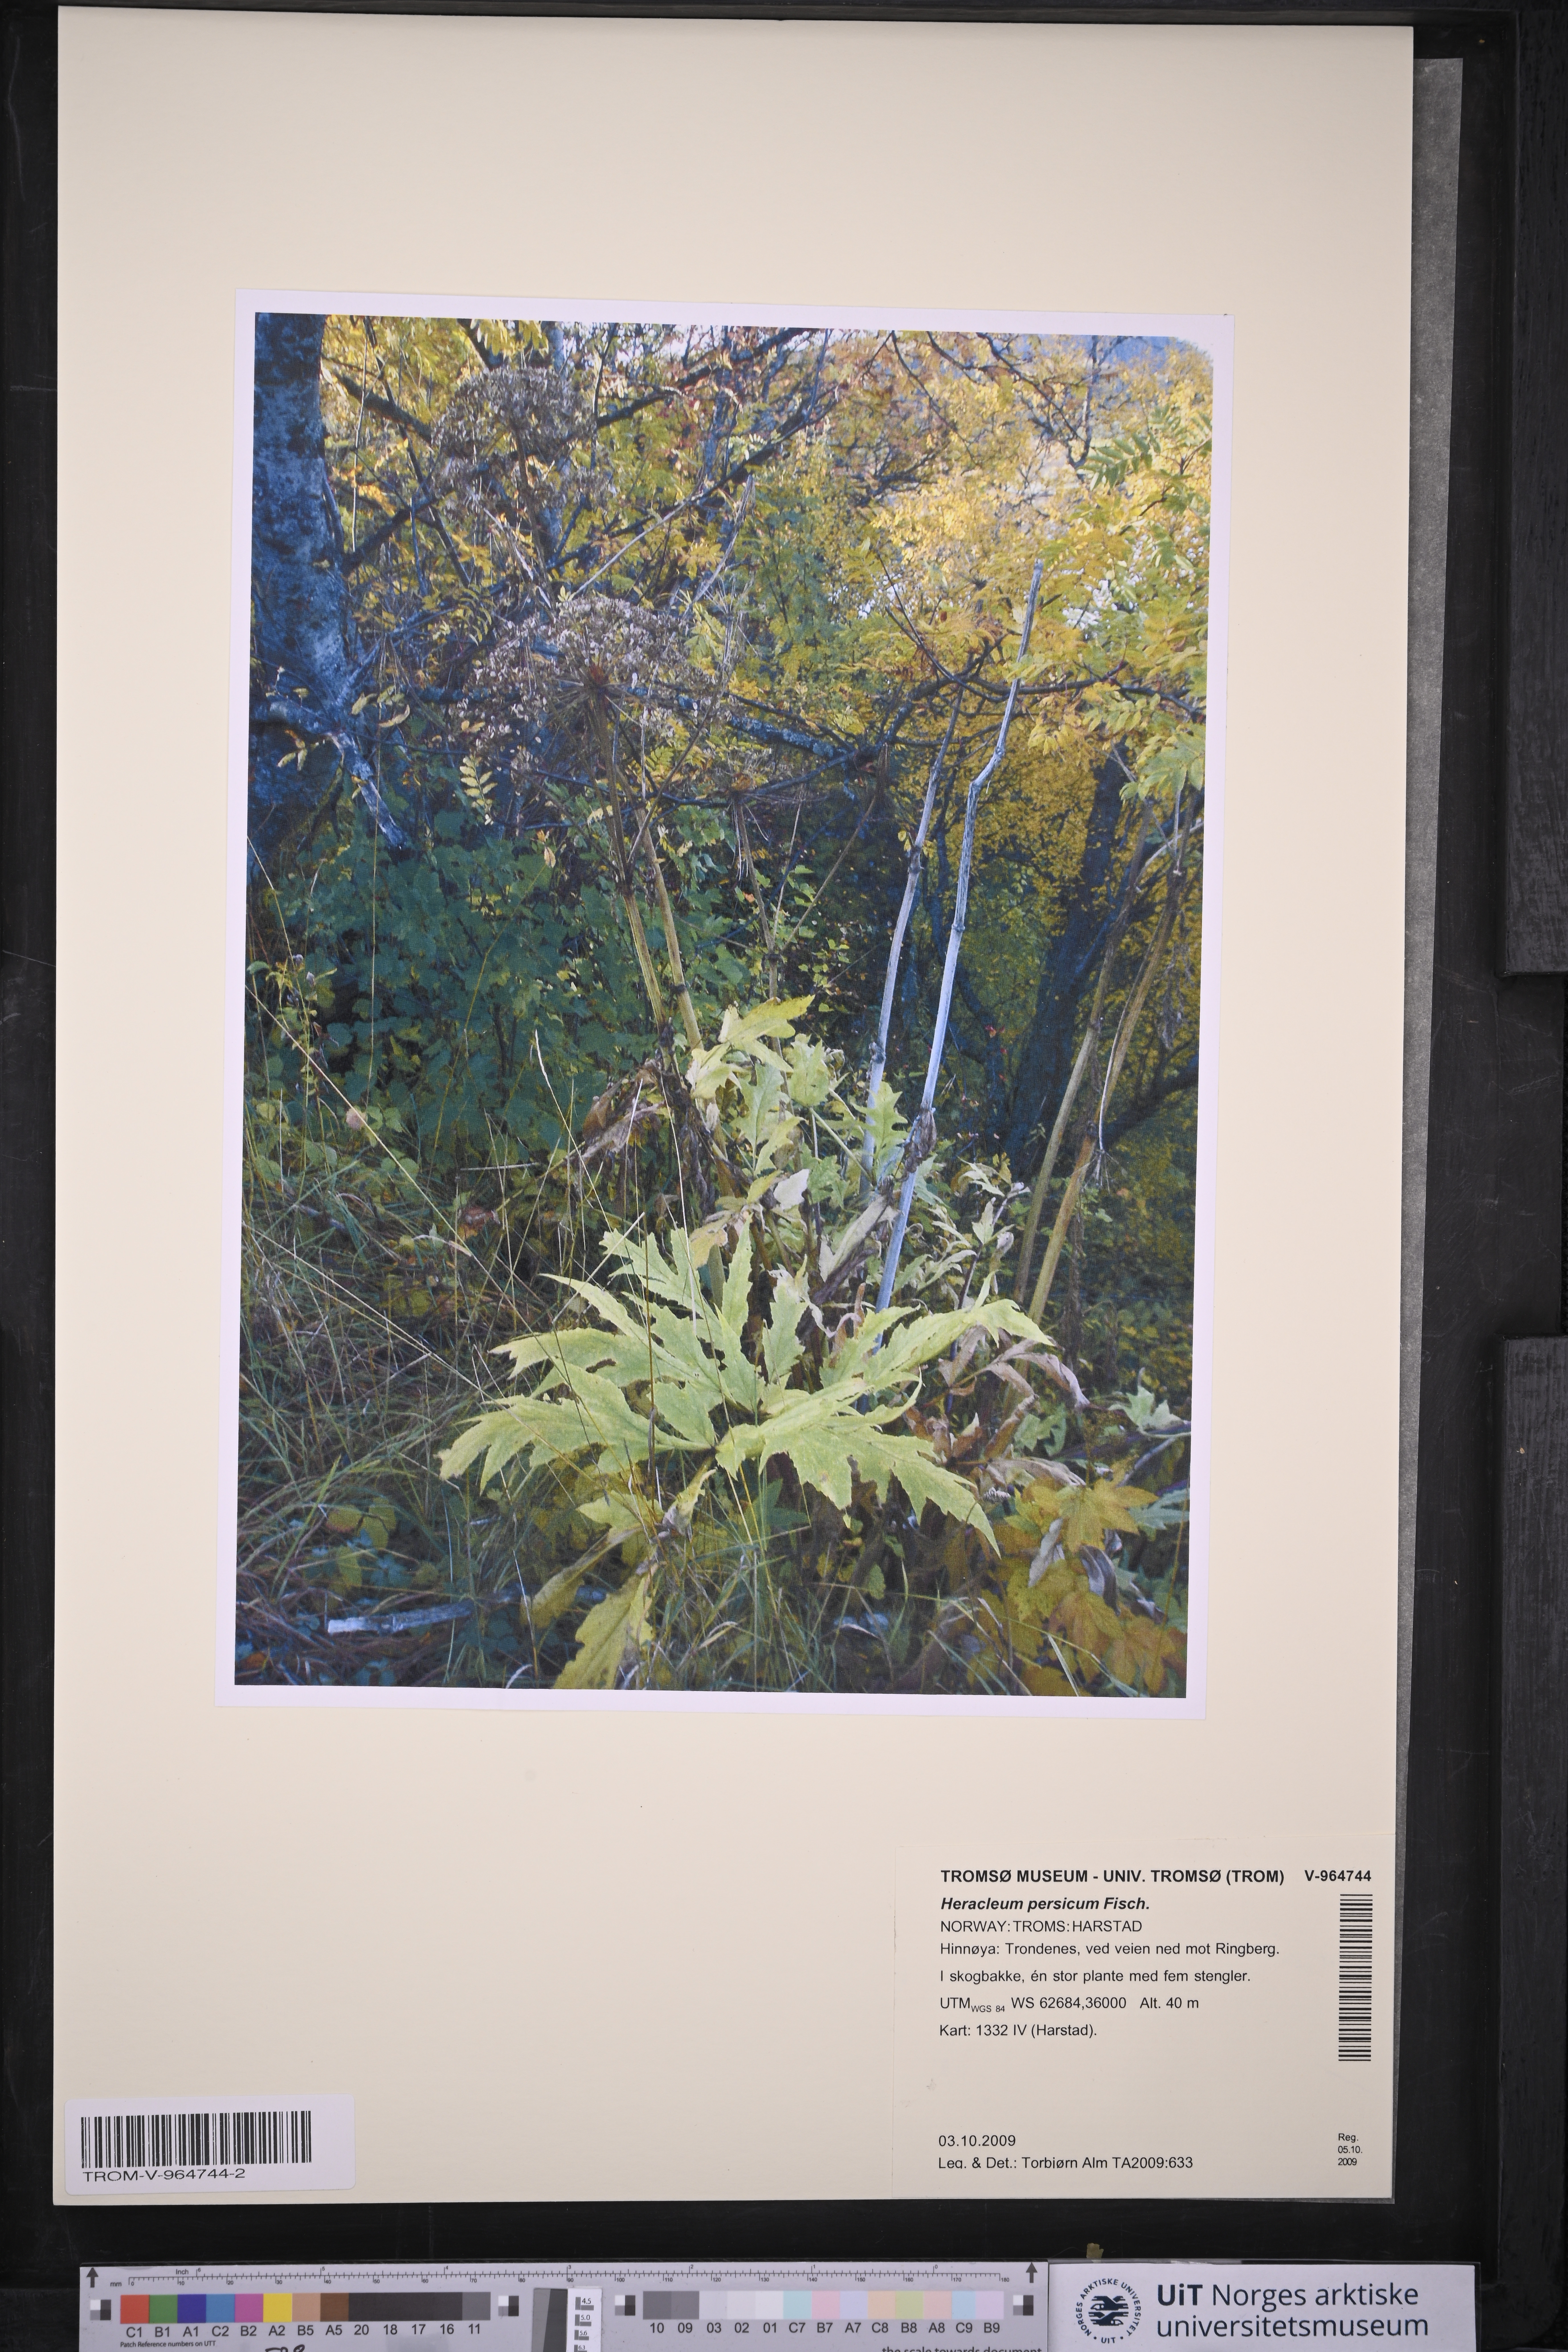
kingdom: Plantae
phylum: Tracheophyta
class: Magnoliopsida
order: Apiales
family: Apiaceae
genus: Heracleum
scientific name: Heracleum persicum
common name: Persian hogweed
